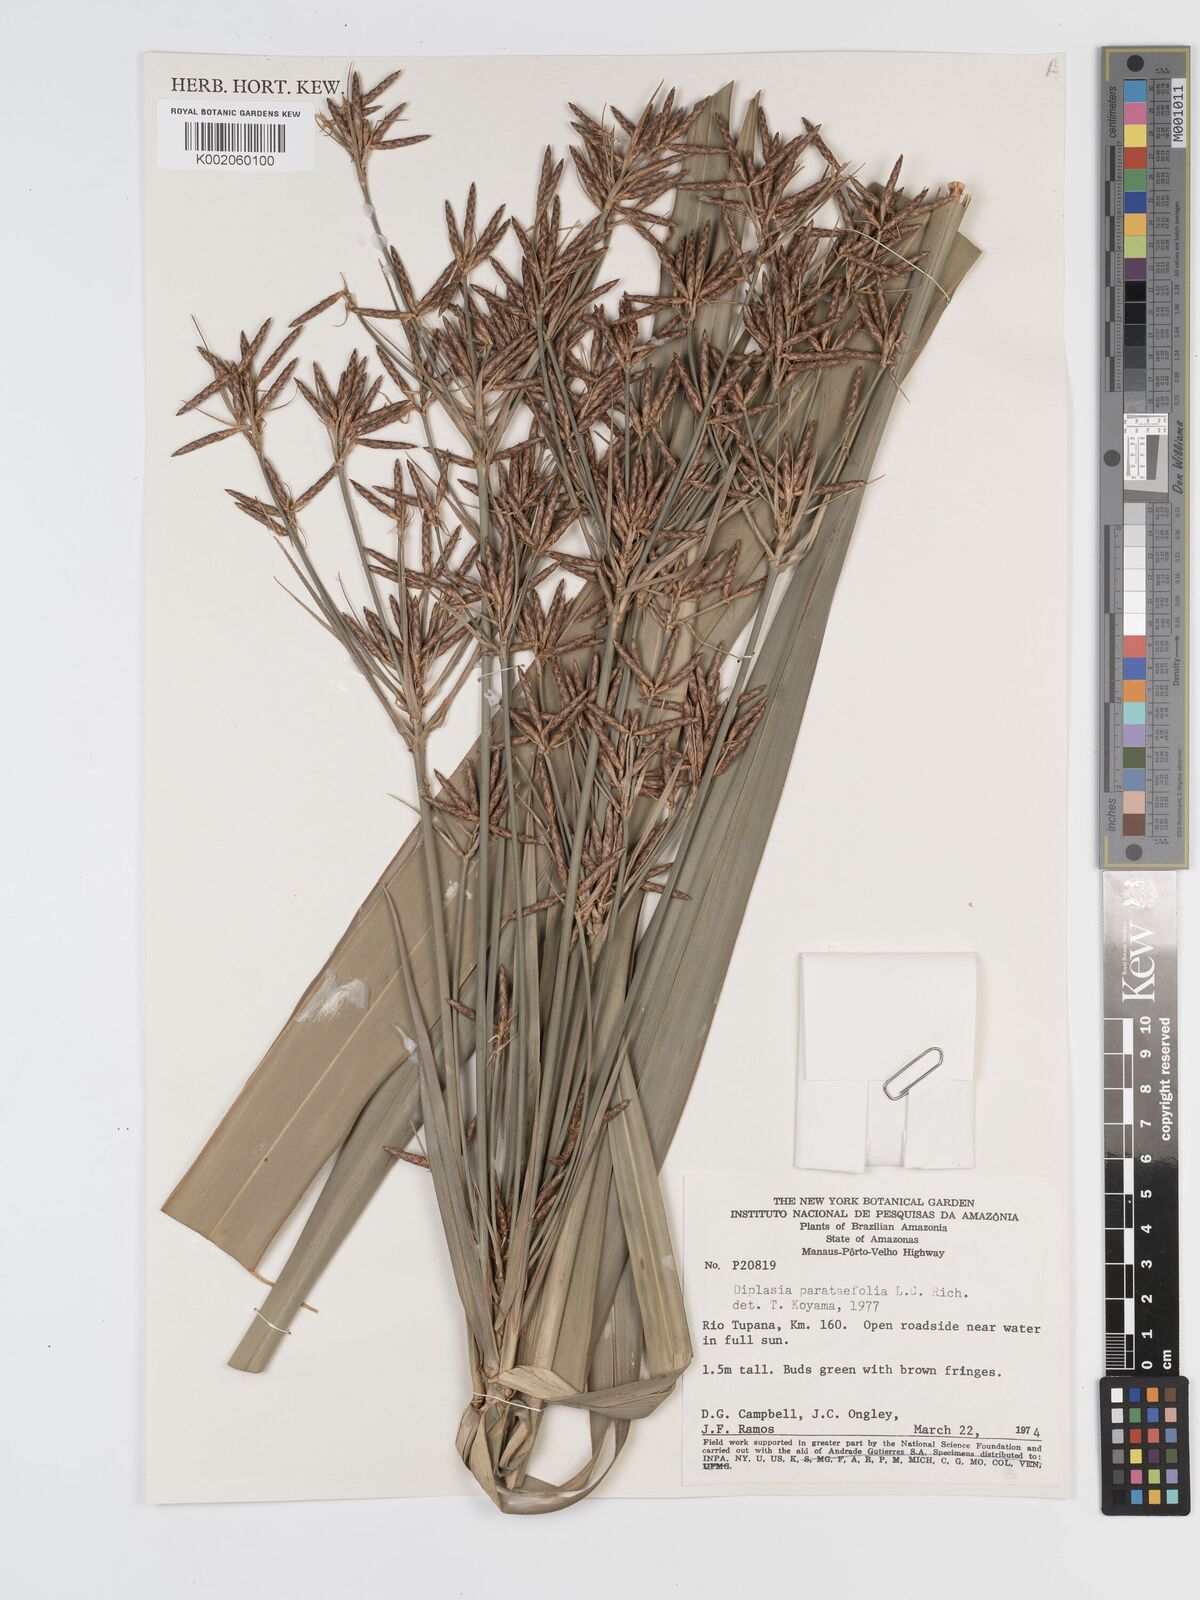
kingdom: Plantae
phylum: Tracheophyta
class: Liliopsida
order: Poales
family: Cyperaceae
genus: Diplasia
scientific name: Diplasia karatifolia
